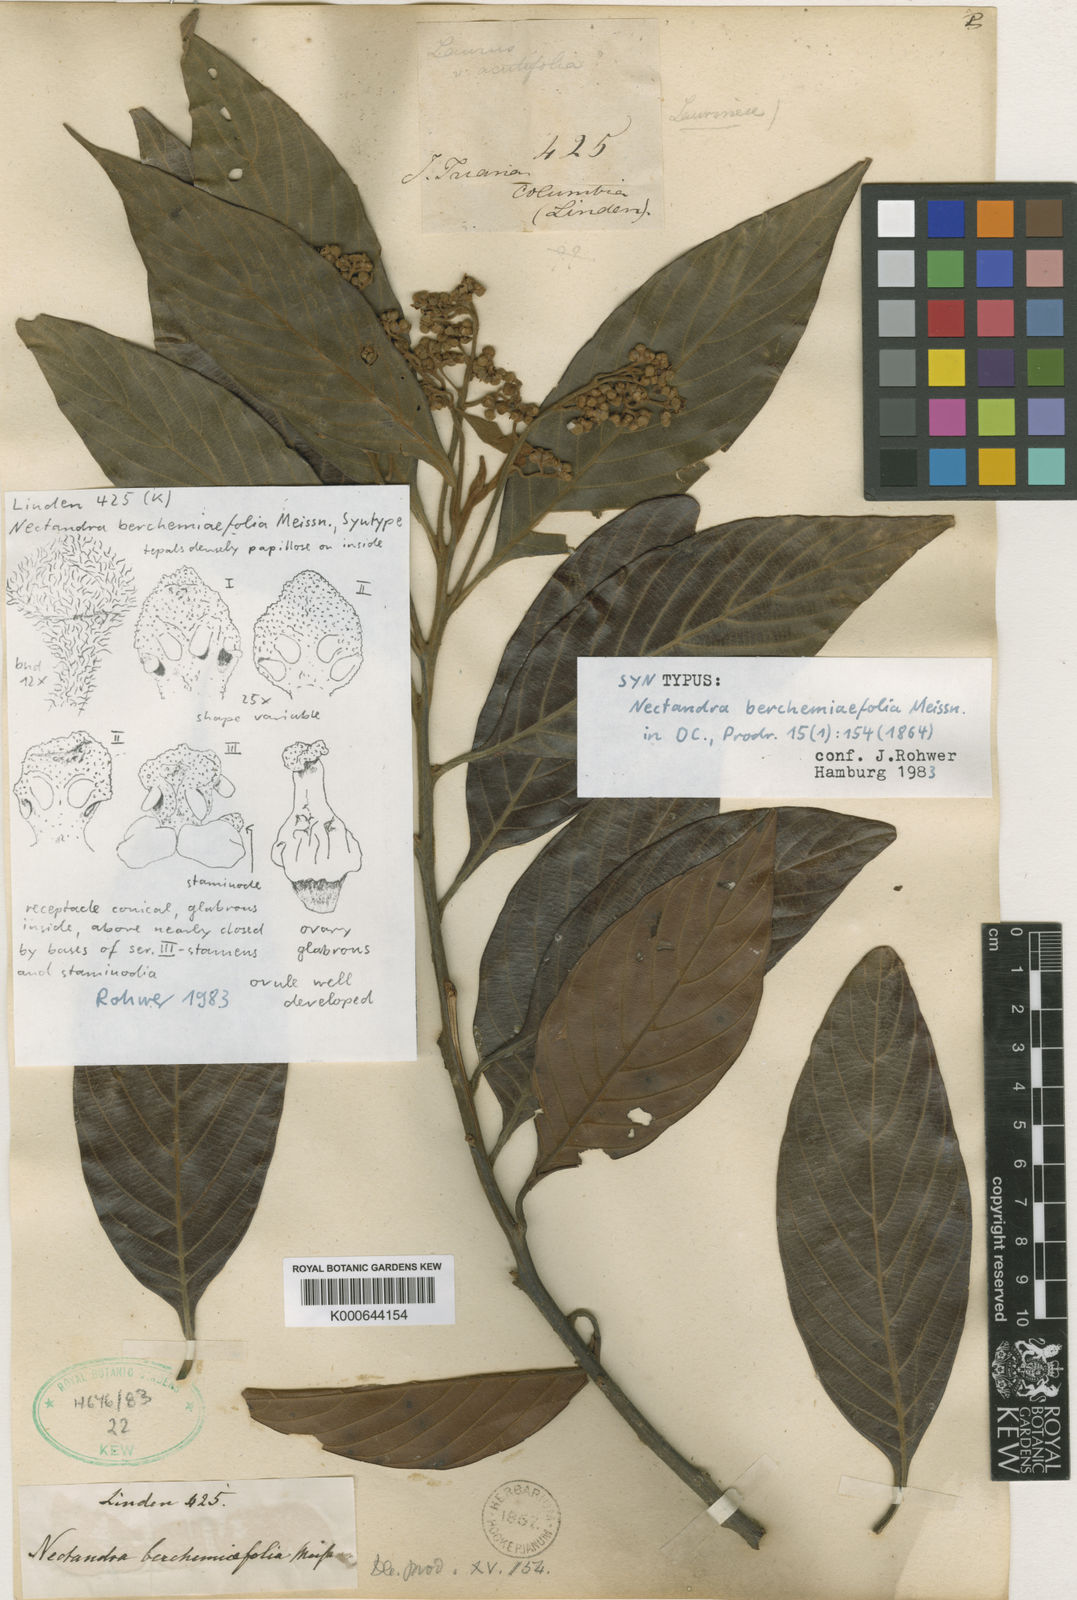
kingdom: Plantae
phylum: Tracheophyta
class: Magnoliopsida
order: Laurales
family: Lauraceae
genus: Nectandra
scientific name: Nectandra acutifolia
